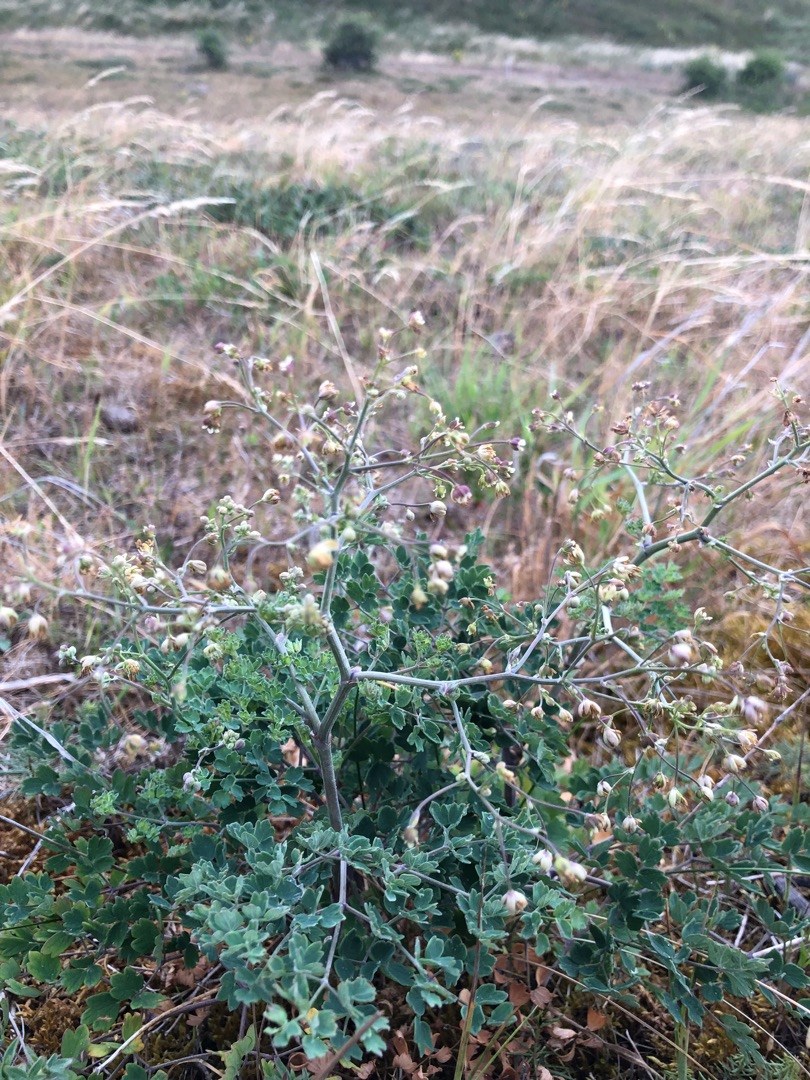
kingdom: Plantae
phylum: Tracheophyta
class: Magnoliopsida
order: Ranunculales
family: Ranunculaceae
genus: Thalictrum
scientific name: Thalictrum minus
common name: Sand-frøstjerne
